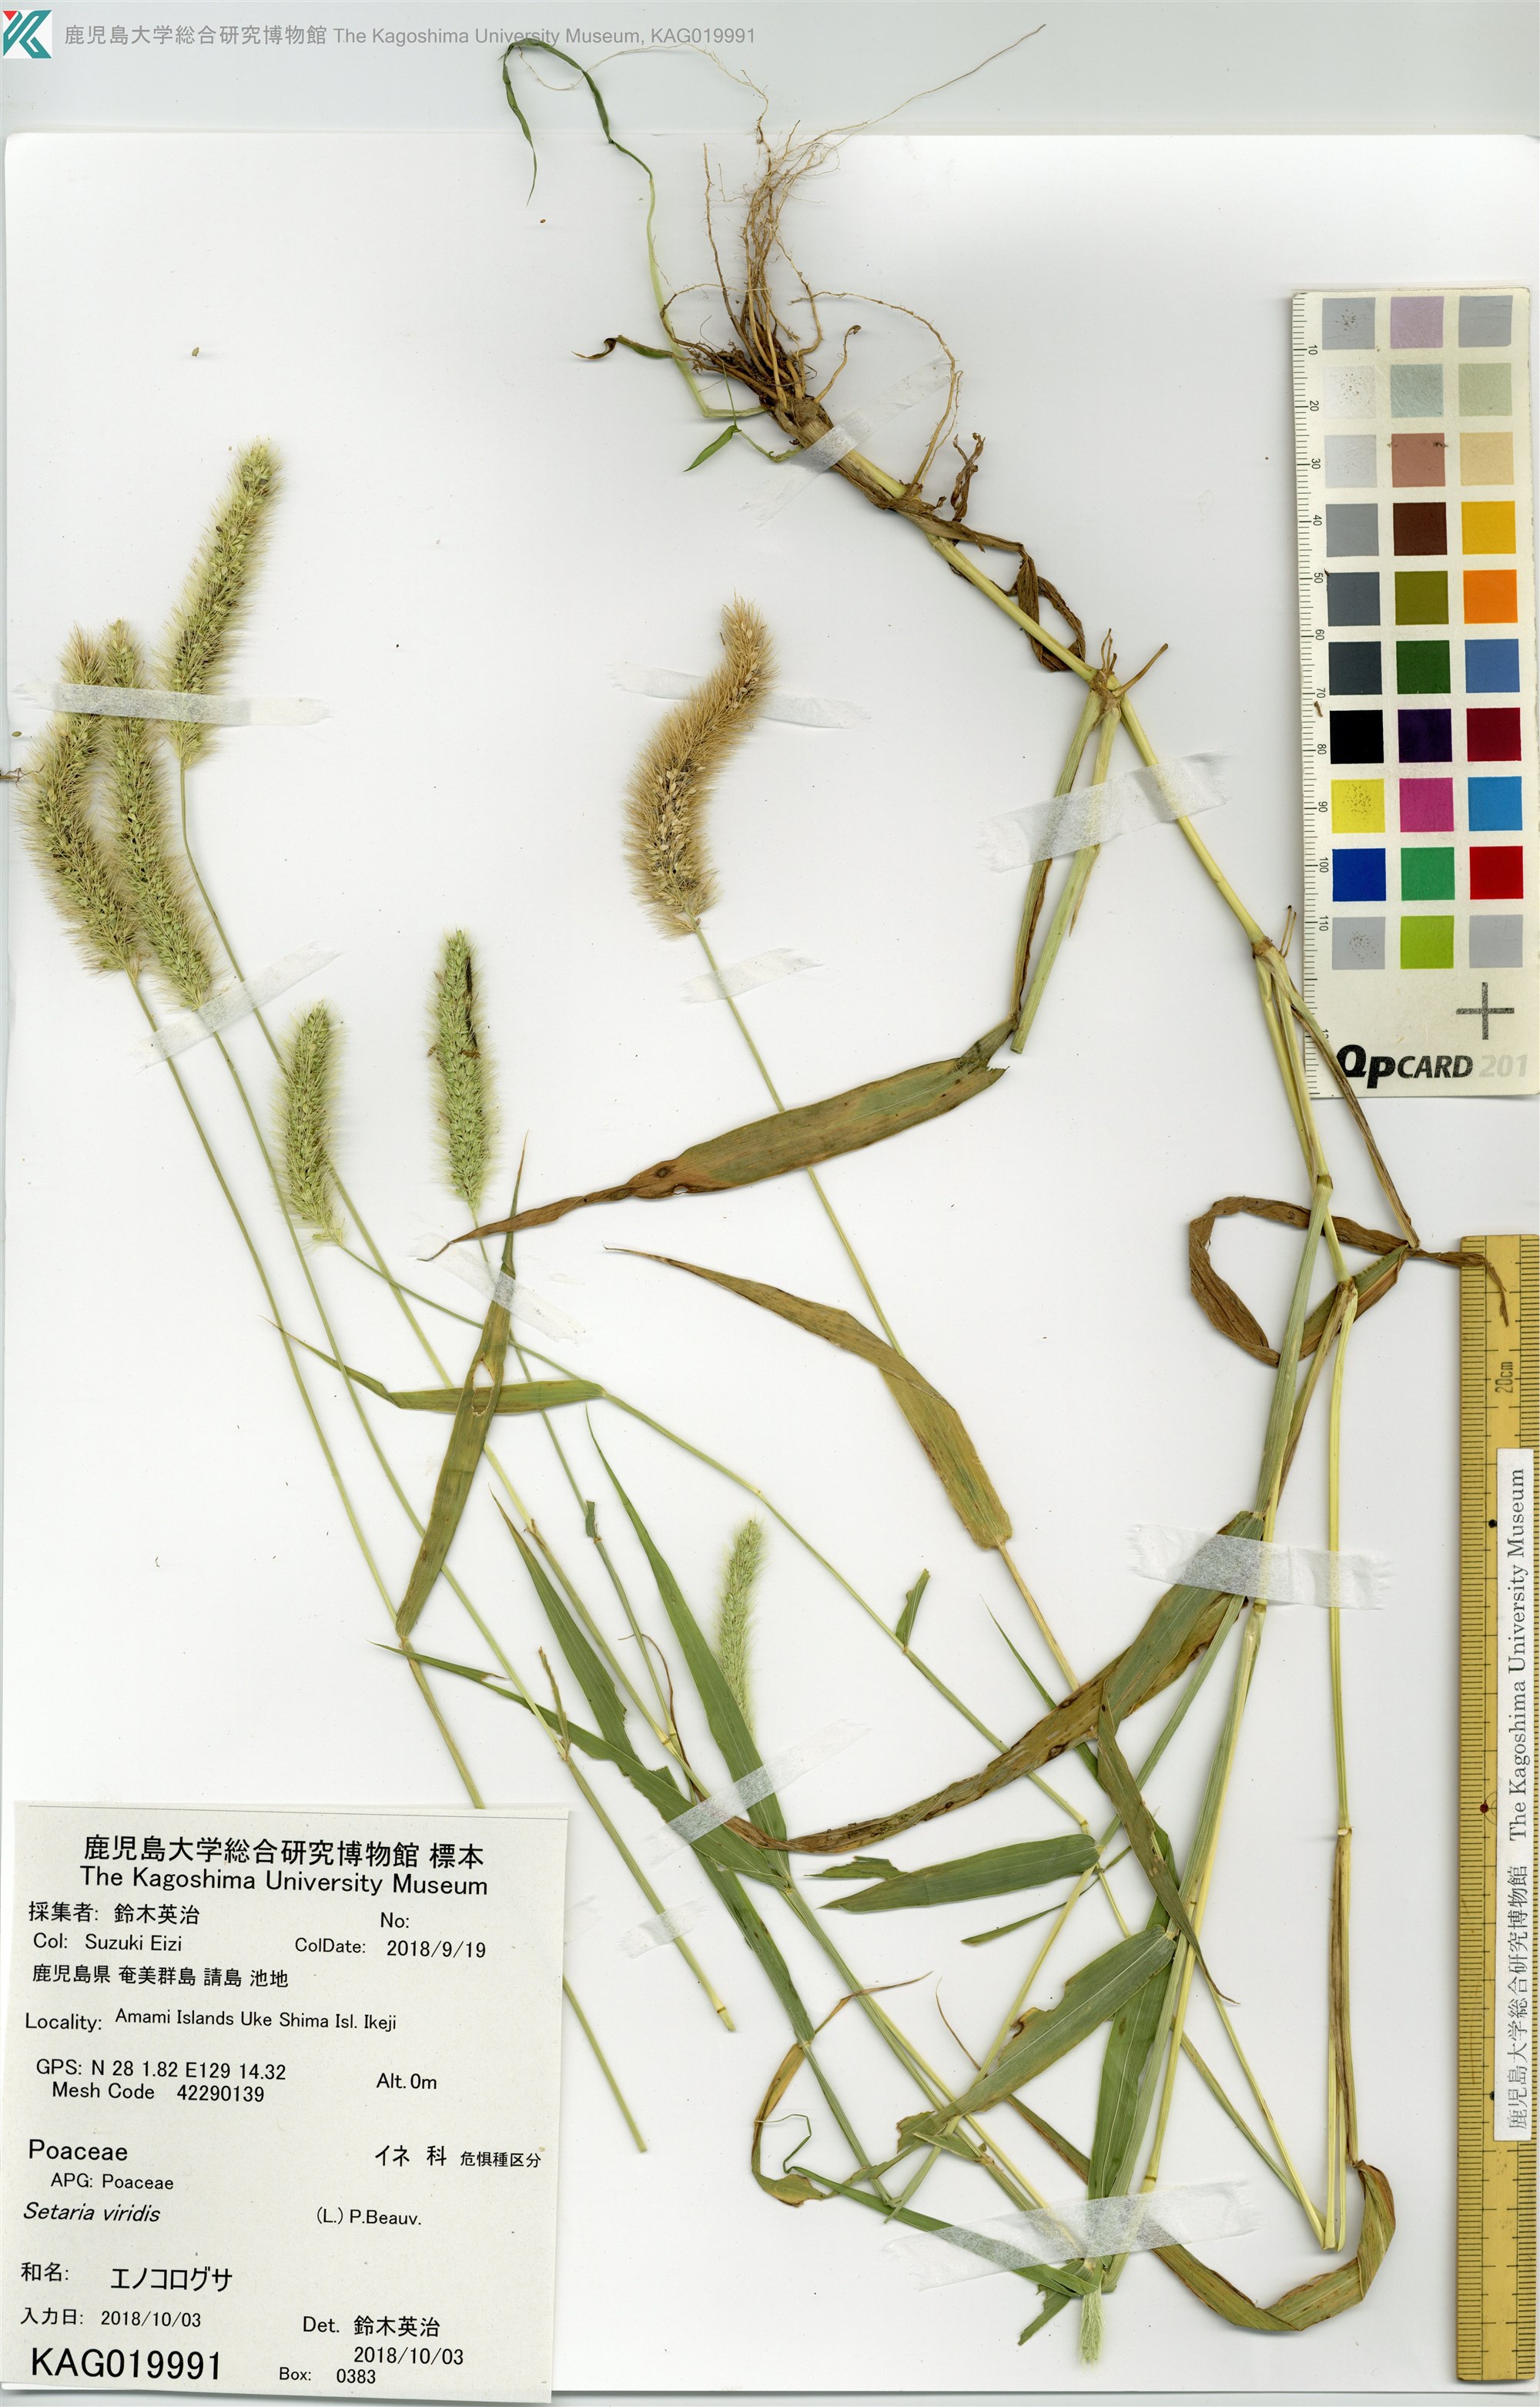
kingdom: Plantae
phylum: Tracheophyta
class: Liliopsida
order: Poales
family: Poaceae
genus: Setaria
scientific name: Setaria viridis
